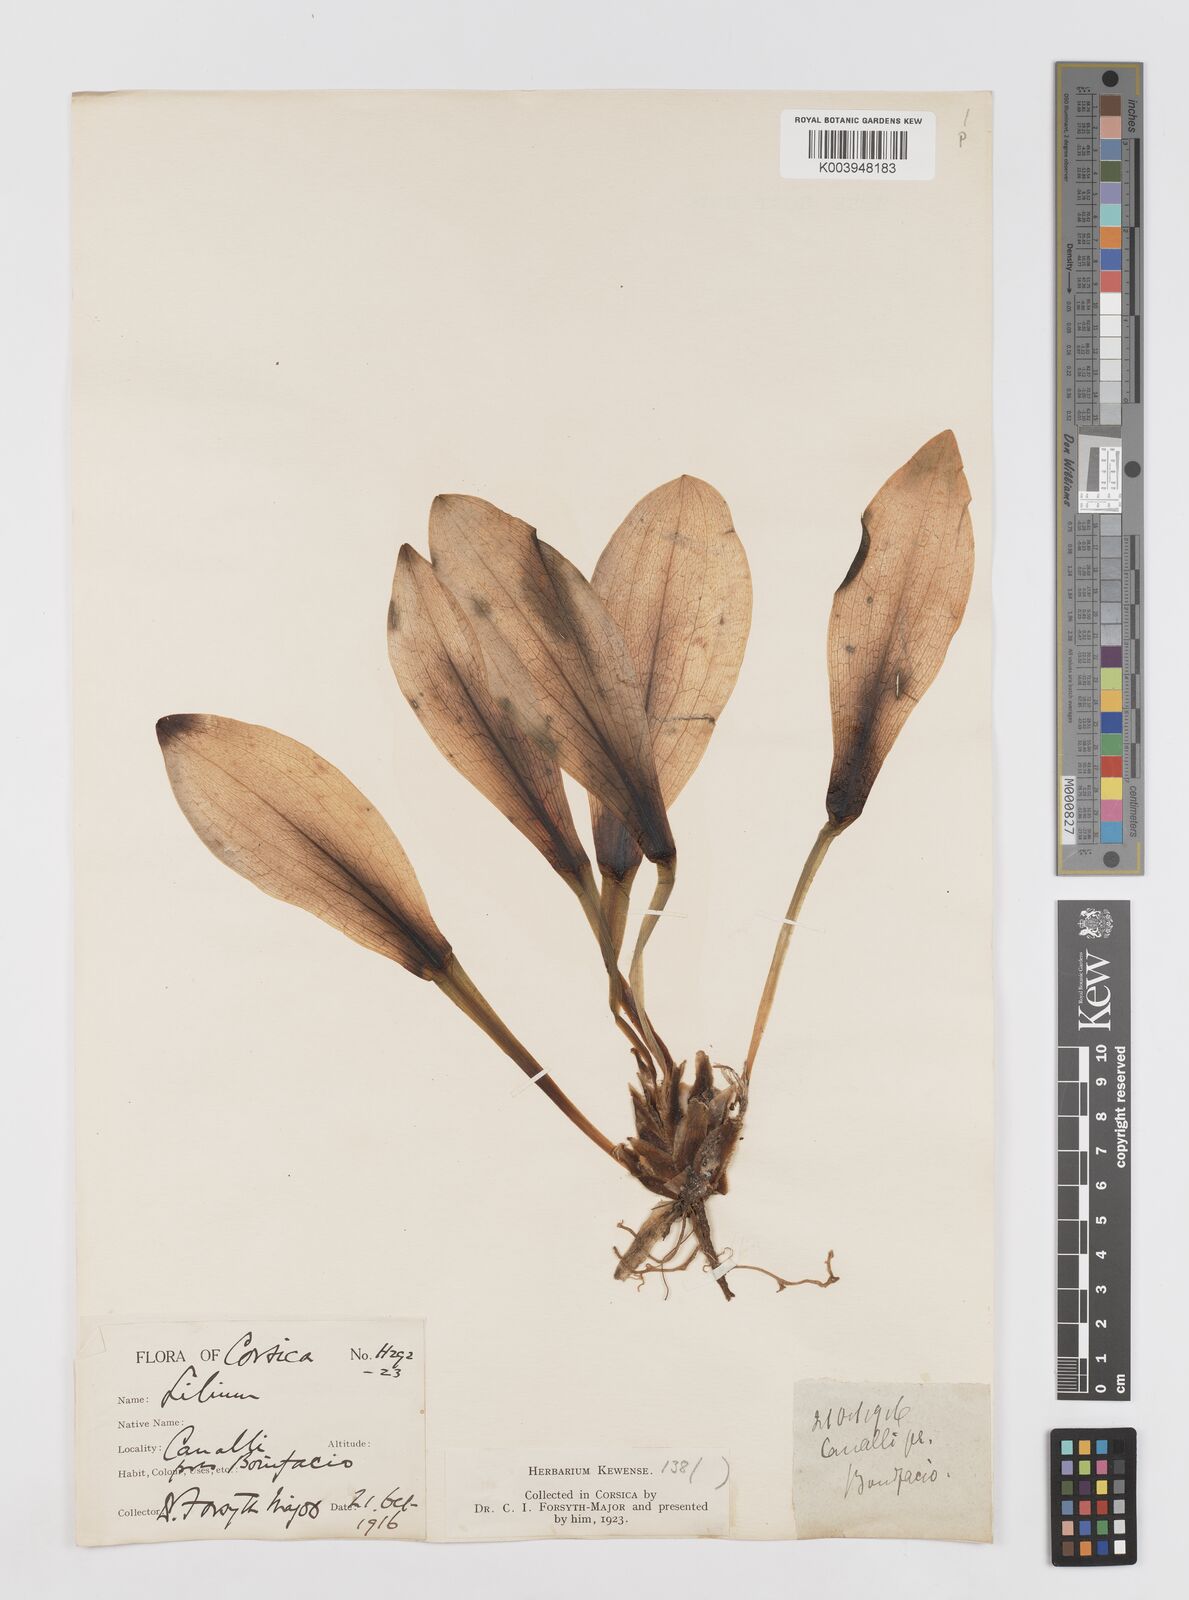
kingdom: Plantae
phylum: Tracheophyta
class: Liliopsida
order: Liliales
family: Liliaceae
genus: Lilium
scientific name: Lilium candidum
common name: Madonna lily
